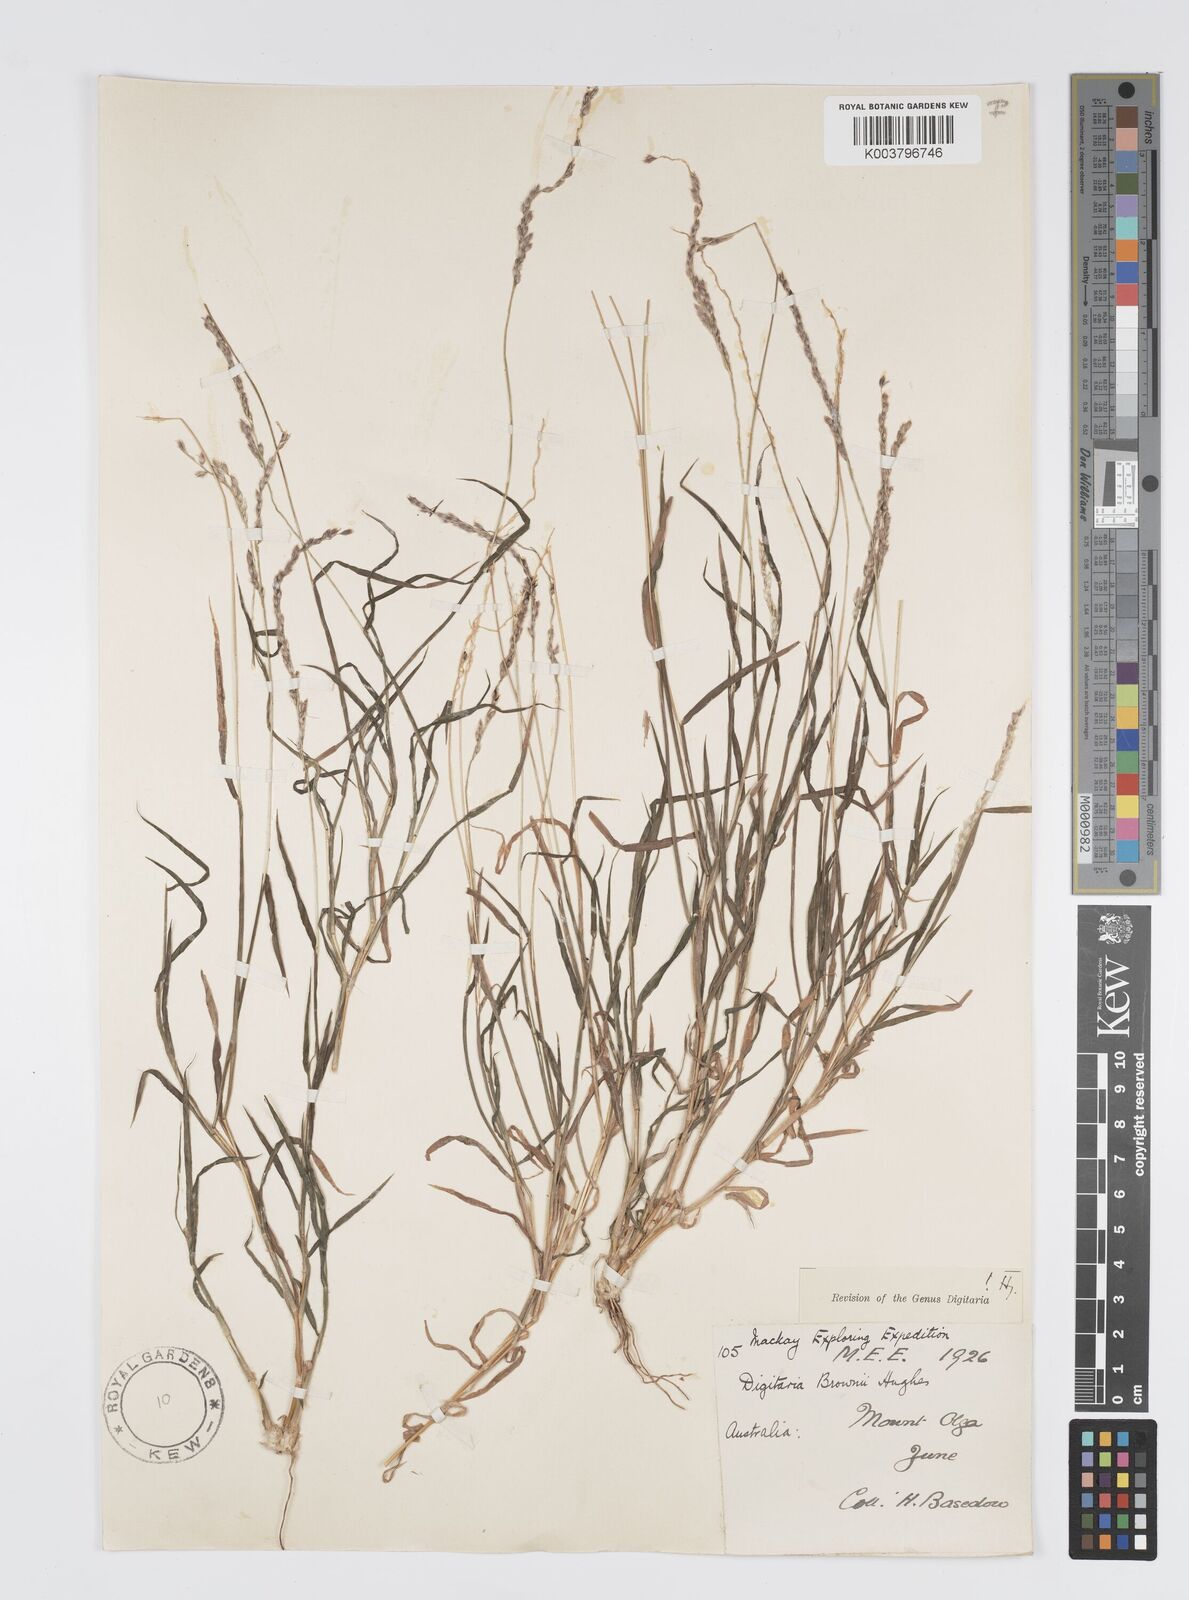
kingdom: Plantae
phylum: Tracheophyta
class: Liliopsida
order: Poales
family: Poaceae
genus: Digitaria
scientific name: Digitaria brownii
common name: Cotton grass
